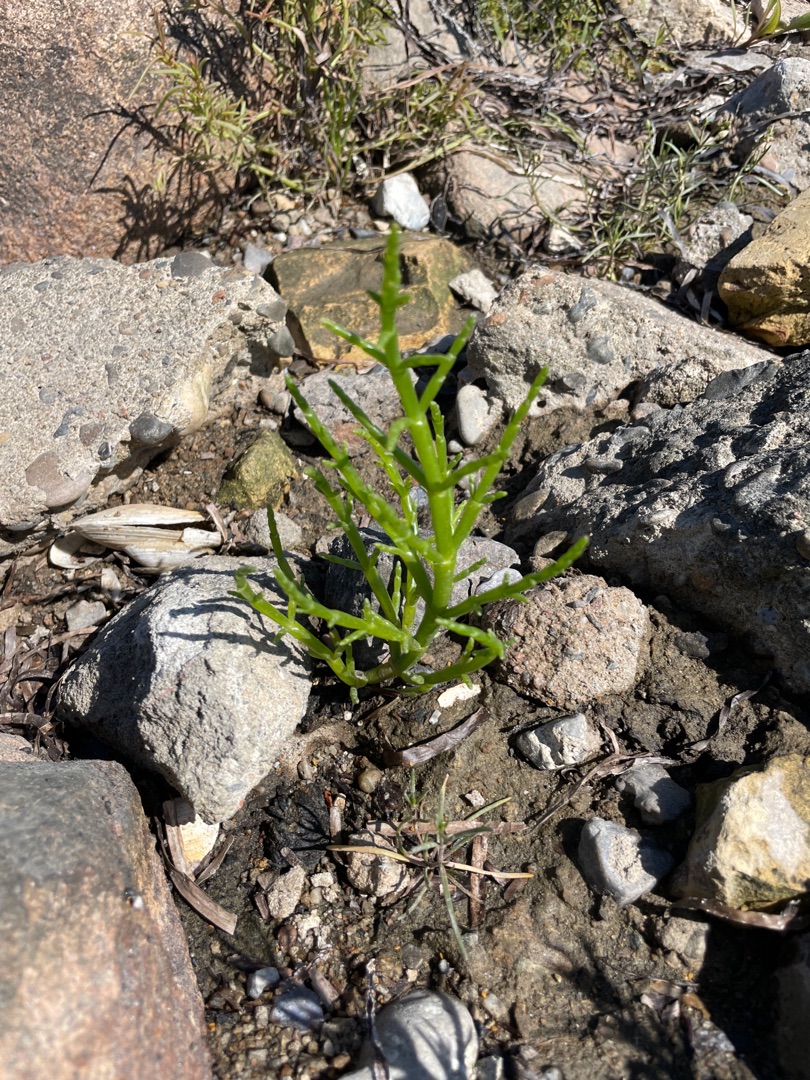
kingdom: Plantae
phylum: Tracheophyta
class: Magnoliopsida
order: Caryophyllales
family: Amaranthaceae
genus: Salicornia
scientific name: Salicornia europaea
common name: Almindelig salturt
